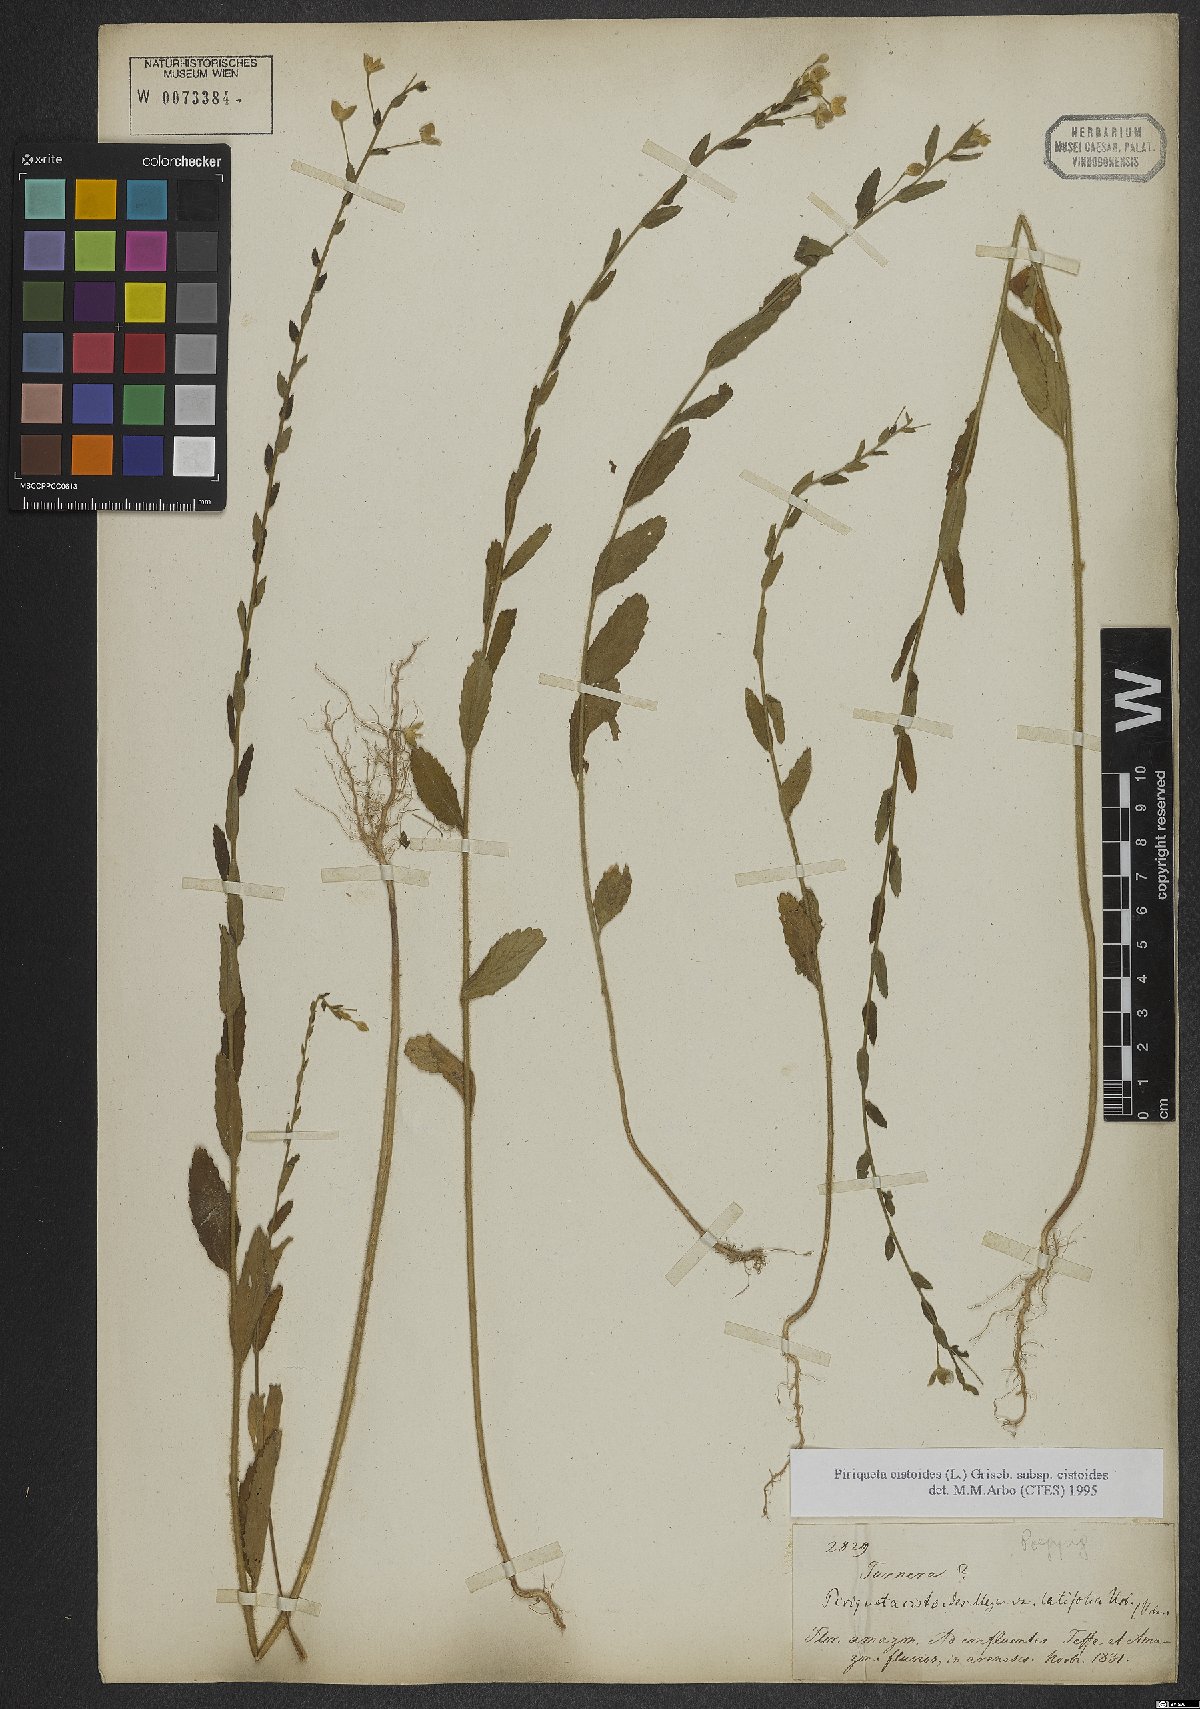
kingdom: Plantae
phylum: Tracheophyta
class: Magnoliopsida
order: Malpighiales
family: Turneraceae
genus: Piriqueta
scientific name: Piriqueta cistoides
